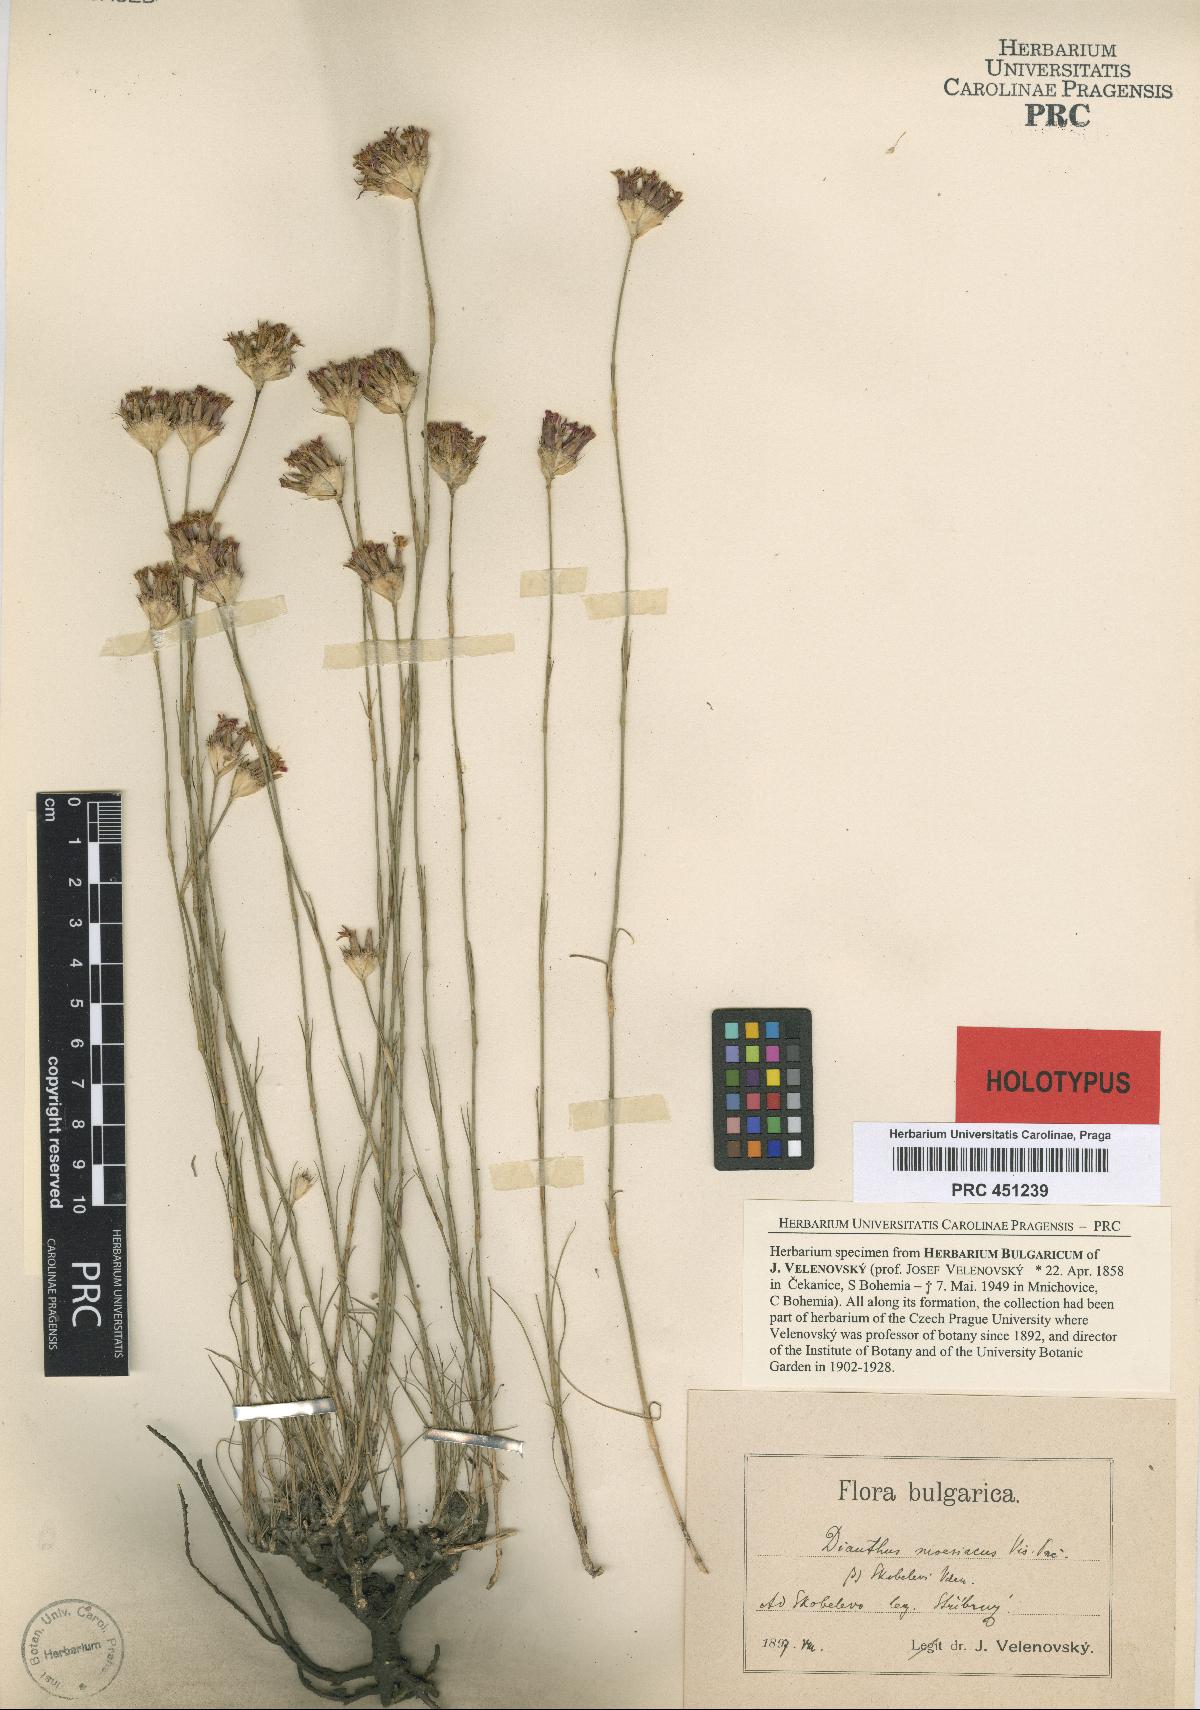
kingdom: Plantae
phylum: Tracheophyta
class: Magnoliopsida
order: Caryophyllales
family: Caryophyllaceae
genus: Dianthus
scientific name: Dianthus moesiacus
